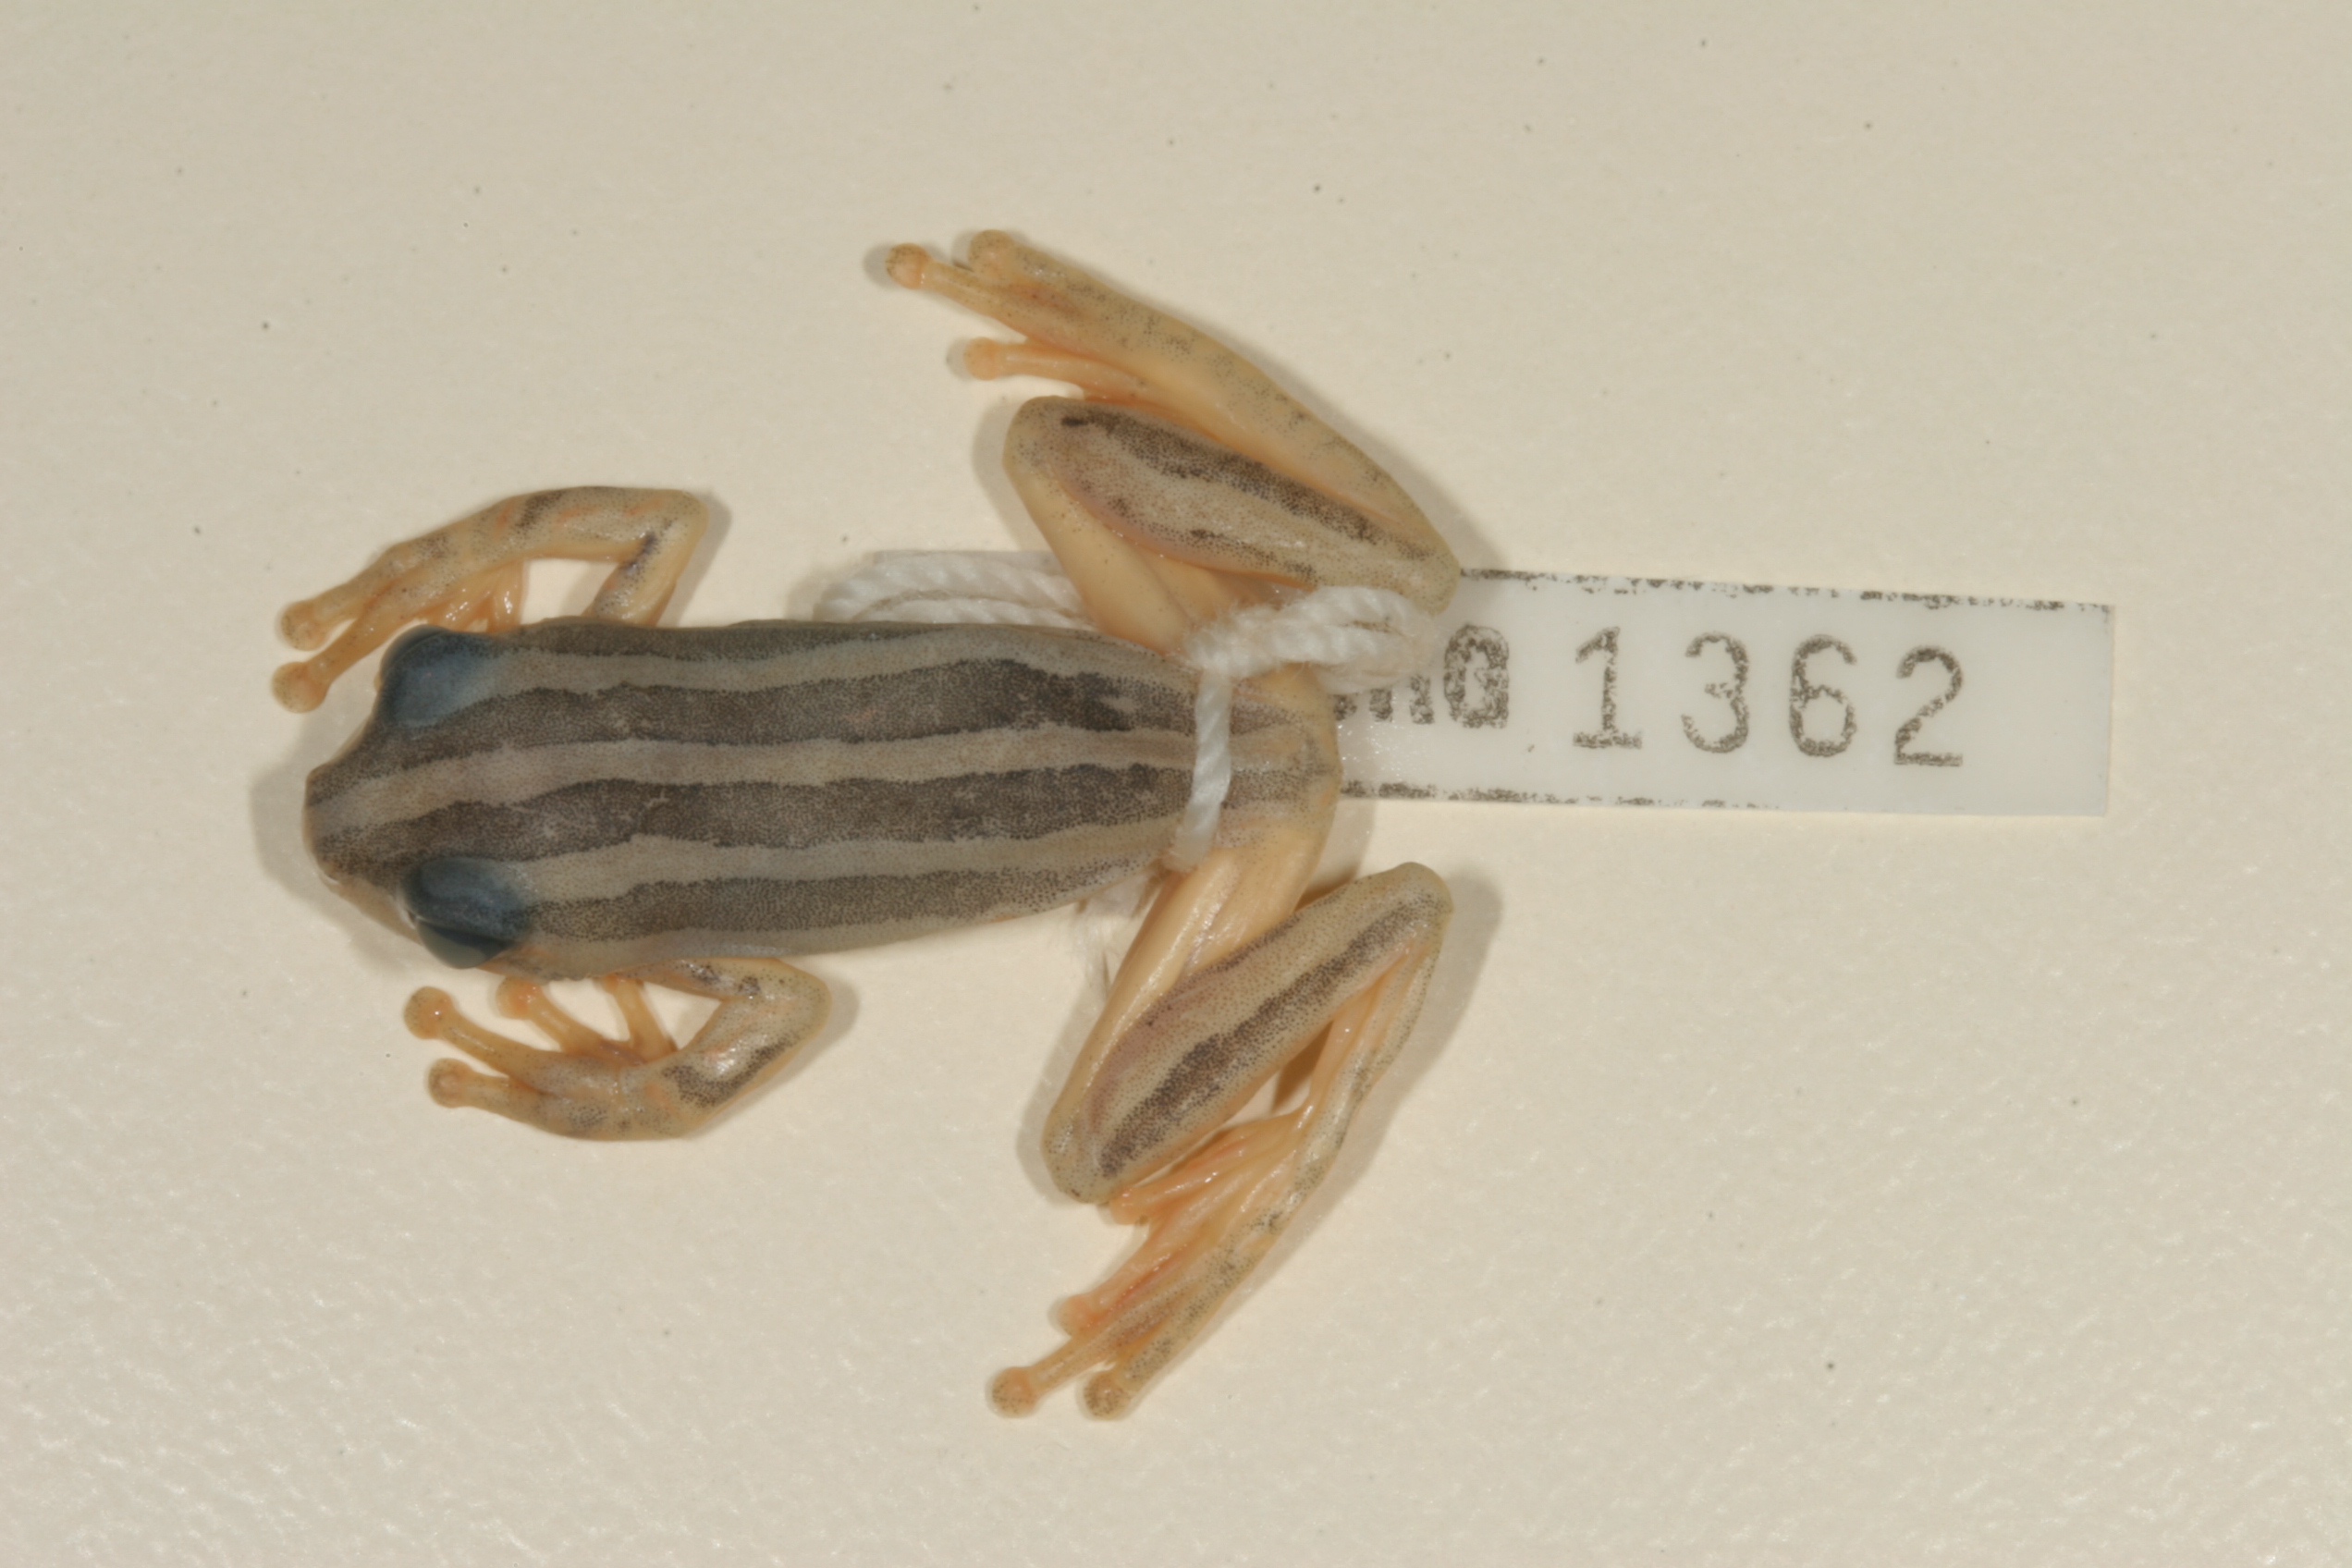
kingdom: Animalia
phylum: Chordata
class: Amphibia
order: Anura
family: Hyperoliidae
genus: Hyperolius
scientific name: Hyperolius marmoratus
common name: Painted reed frog
